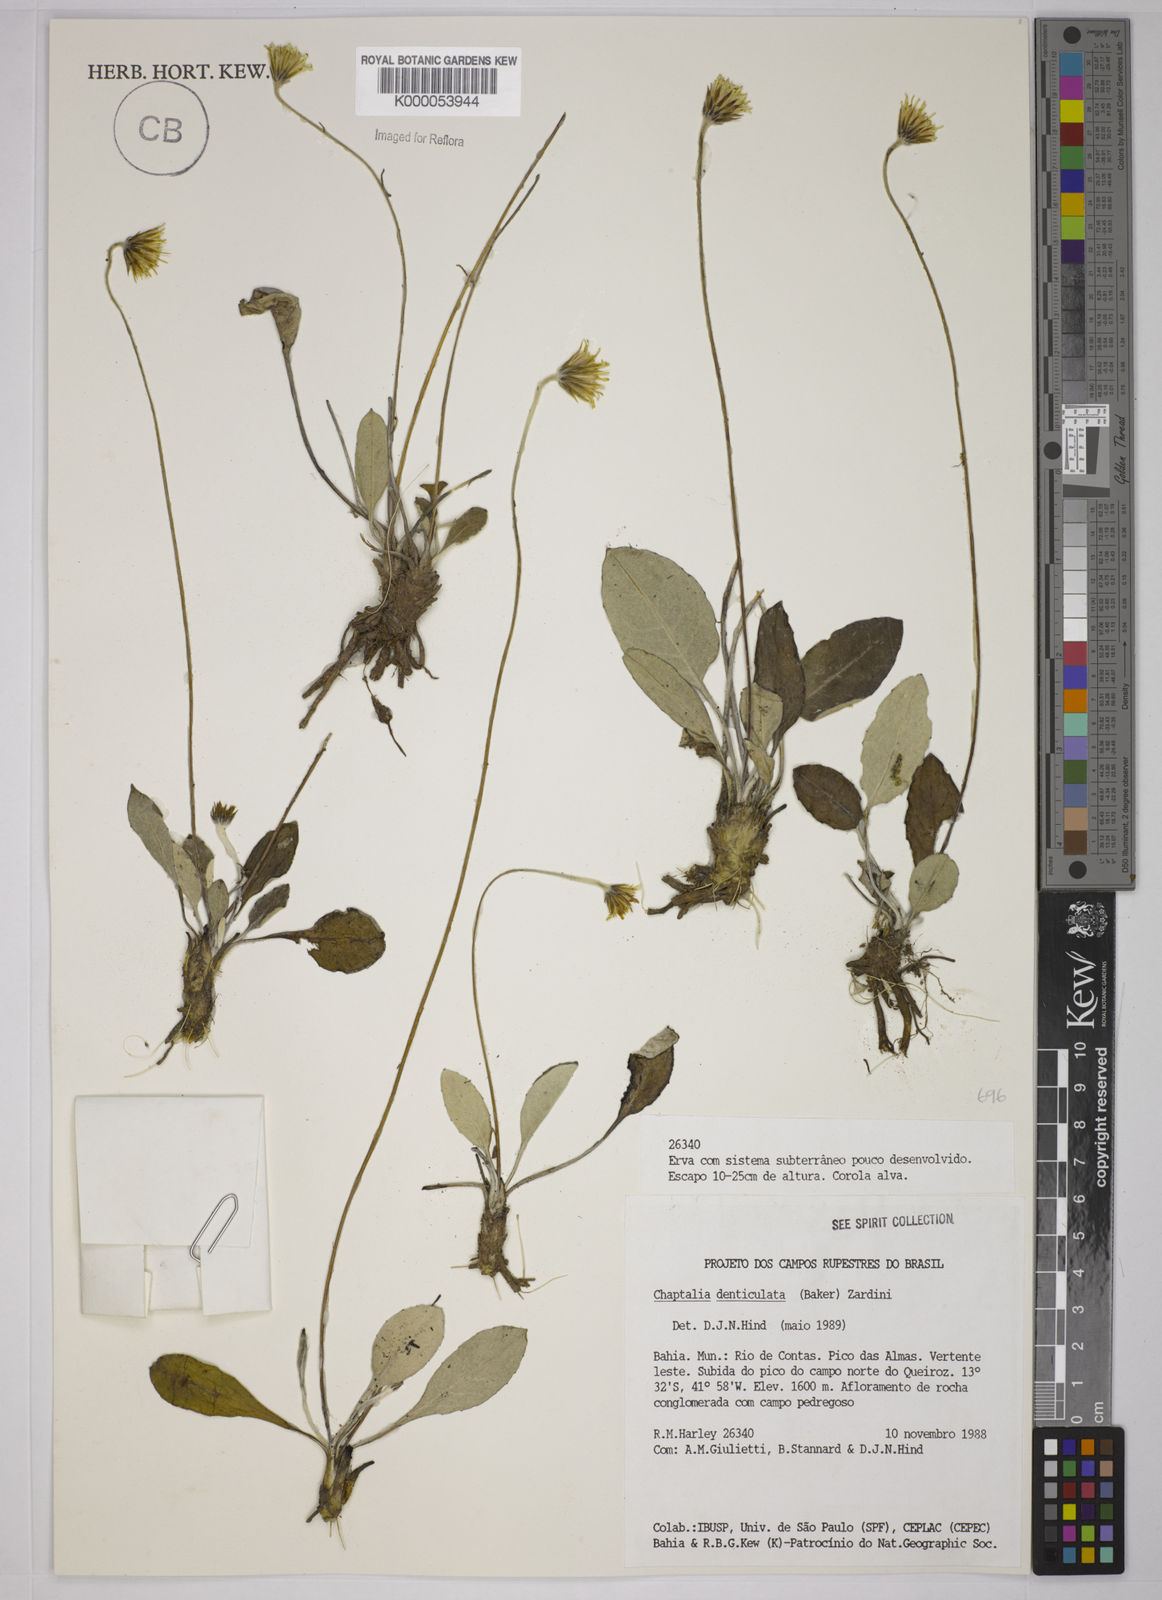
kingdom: Plantae
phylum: Tracheophyta
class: Magnoliopsida
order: Asterales
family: Asteraceae
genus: Chaptalia
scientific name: Chaptalia denticulata
